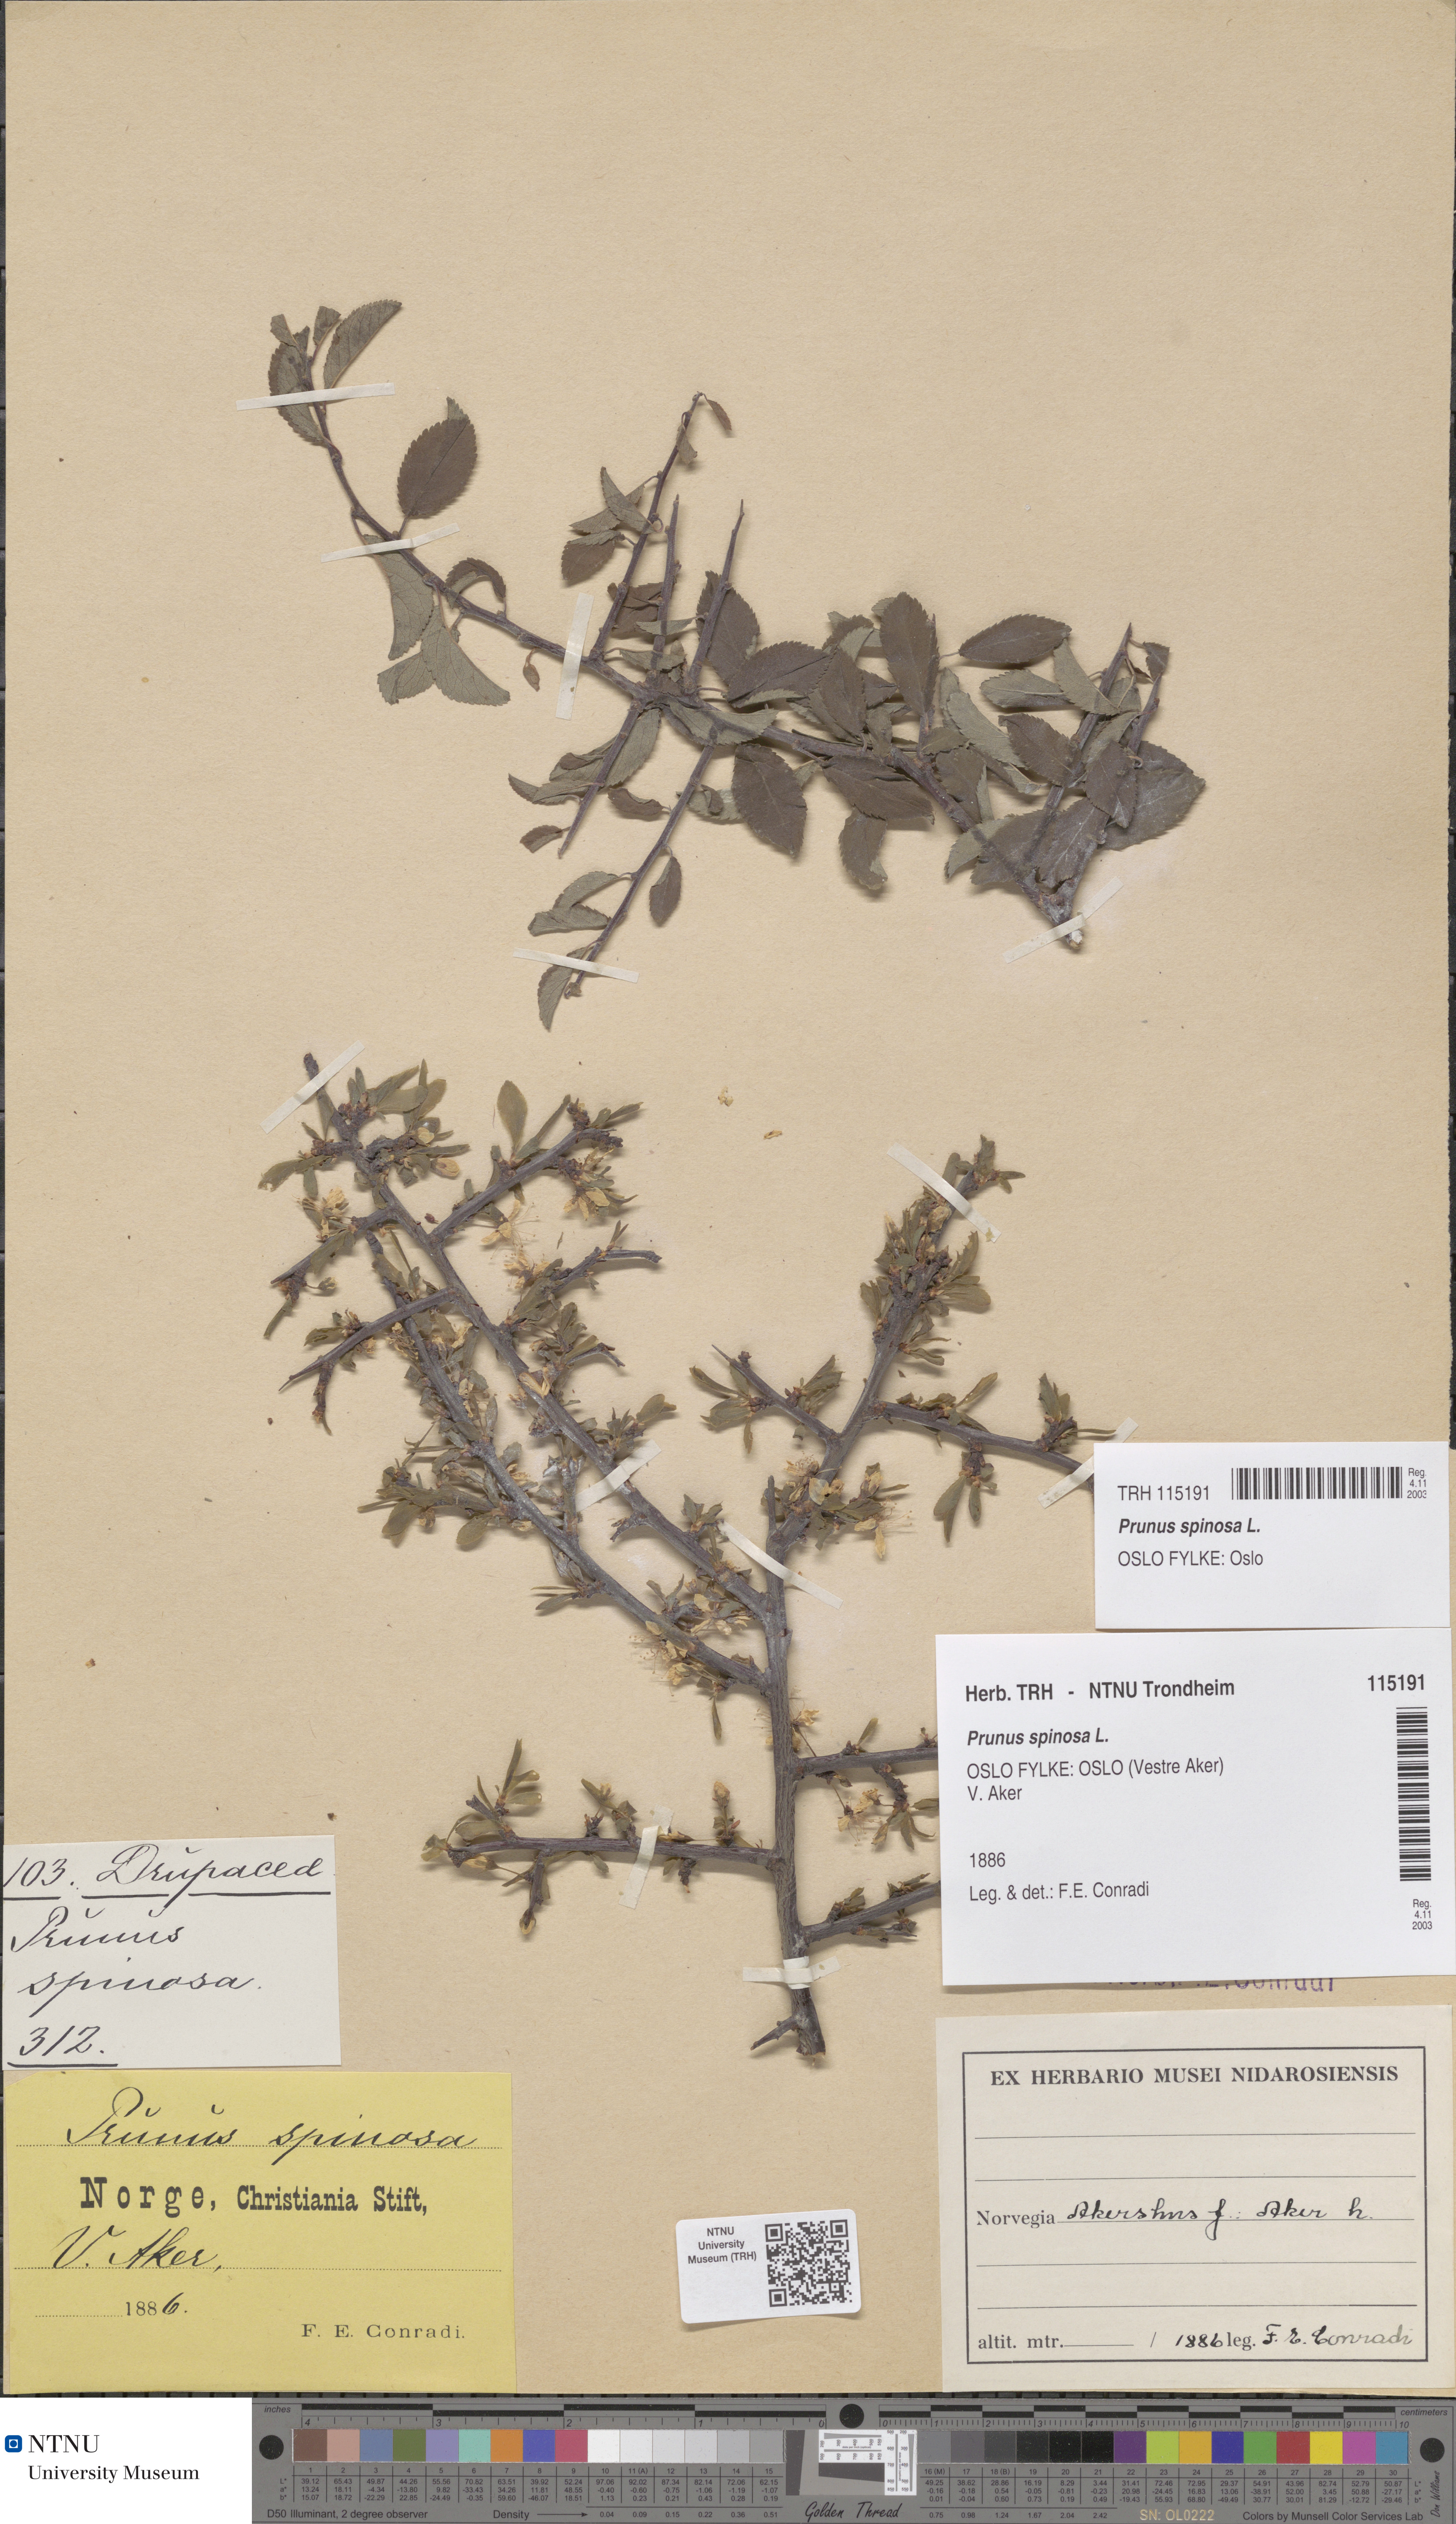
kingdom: Plantae
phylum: Tracheophyta
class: Magnoliopsida
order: Rosales
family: Rosaceae
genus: Prunus
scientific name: Prunus spinosa
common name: Blackthorn
